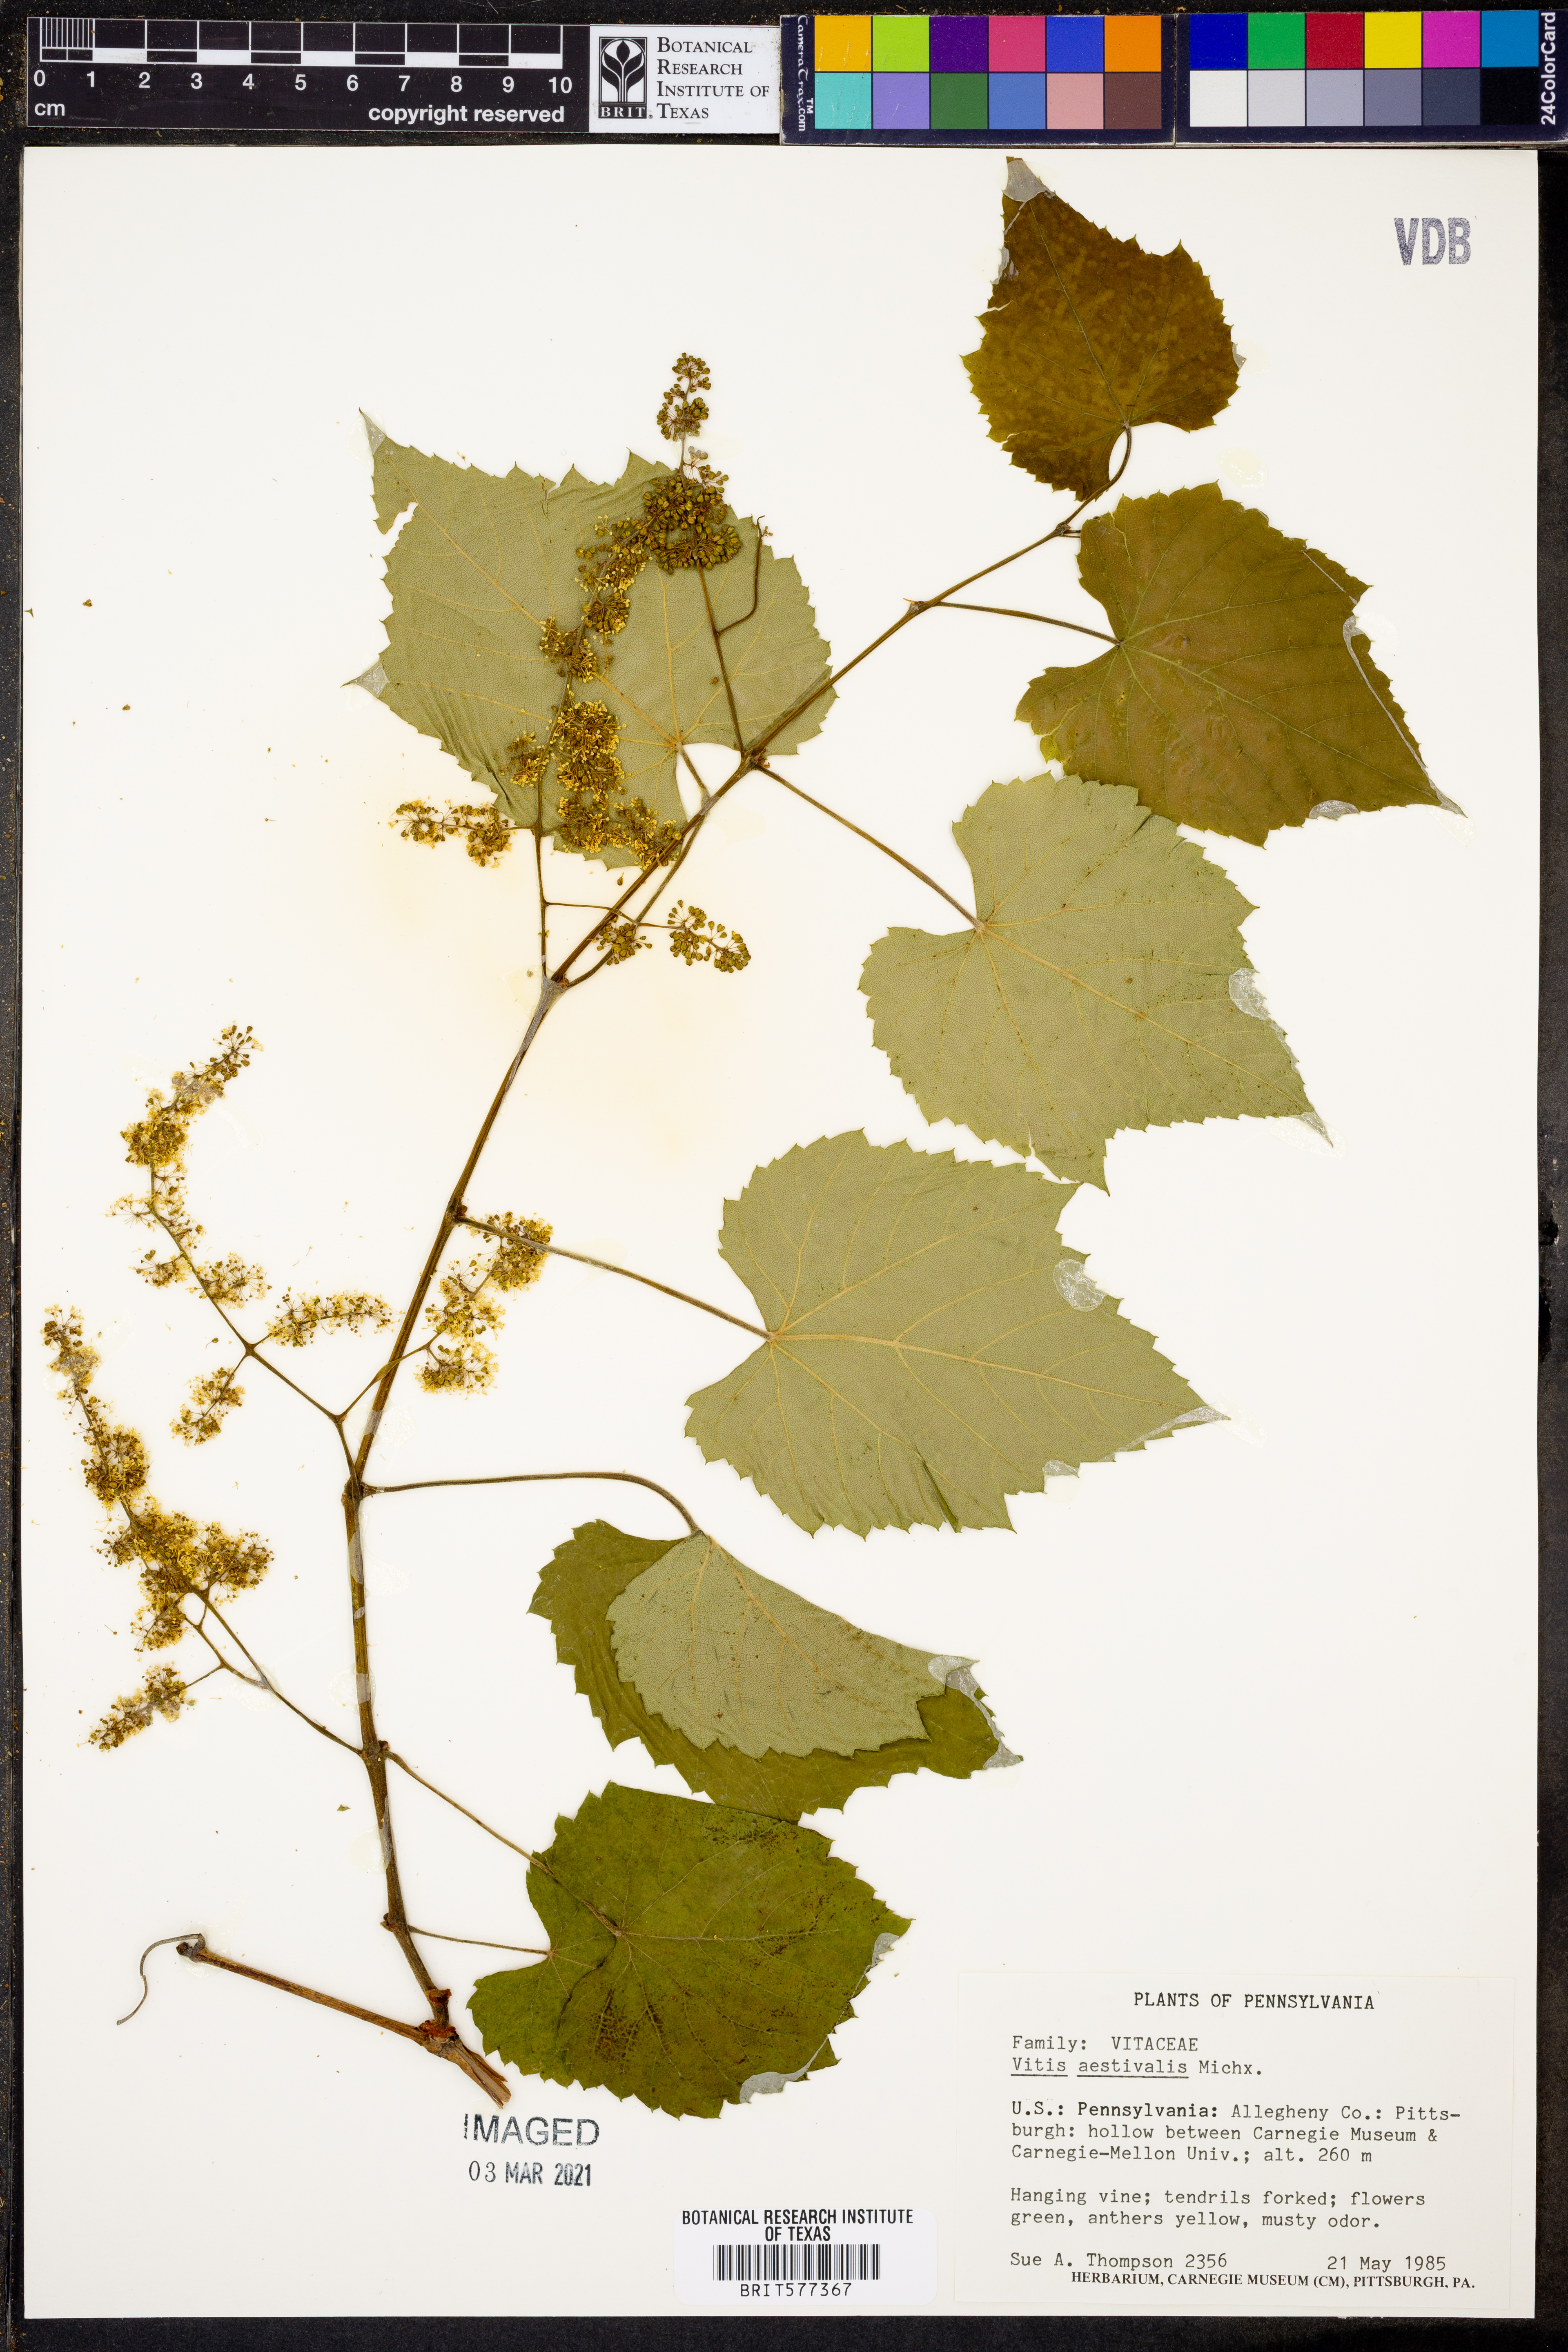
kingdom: Plantae
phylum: Tracheophyta
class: Magnoliopsida
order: Vitales
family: Vitaceae
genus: Vitis
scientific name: Vitis aestivalis
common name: Pigeon grape
